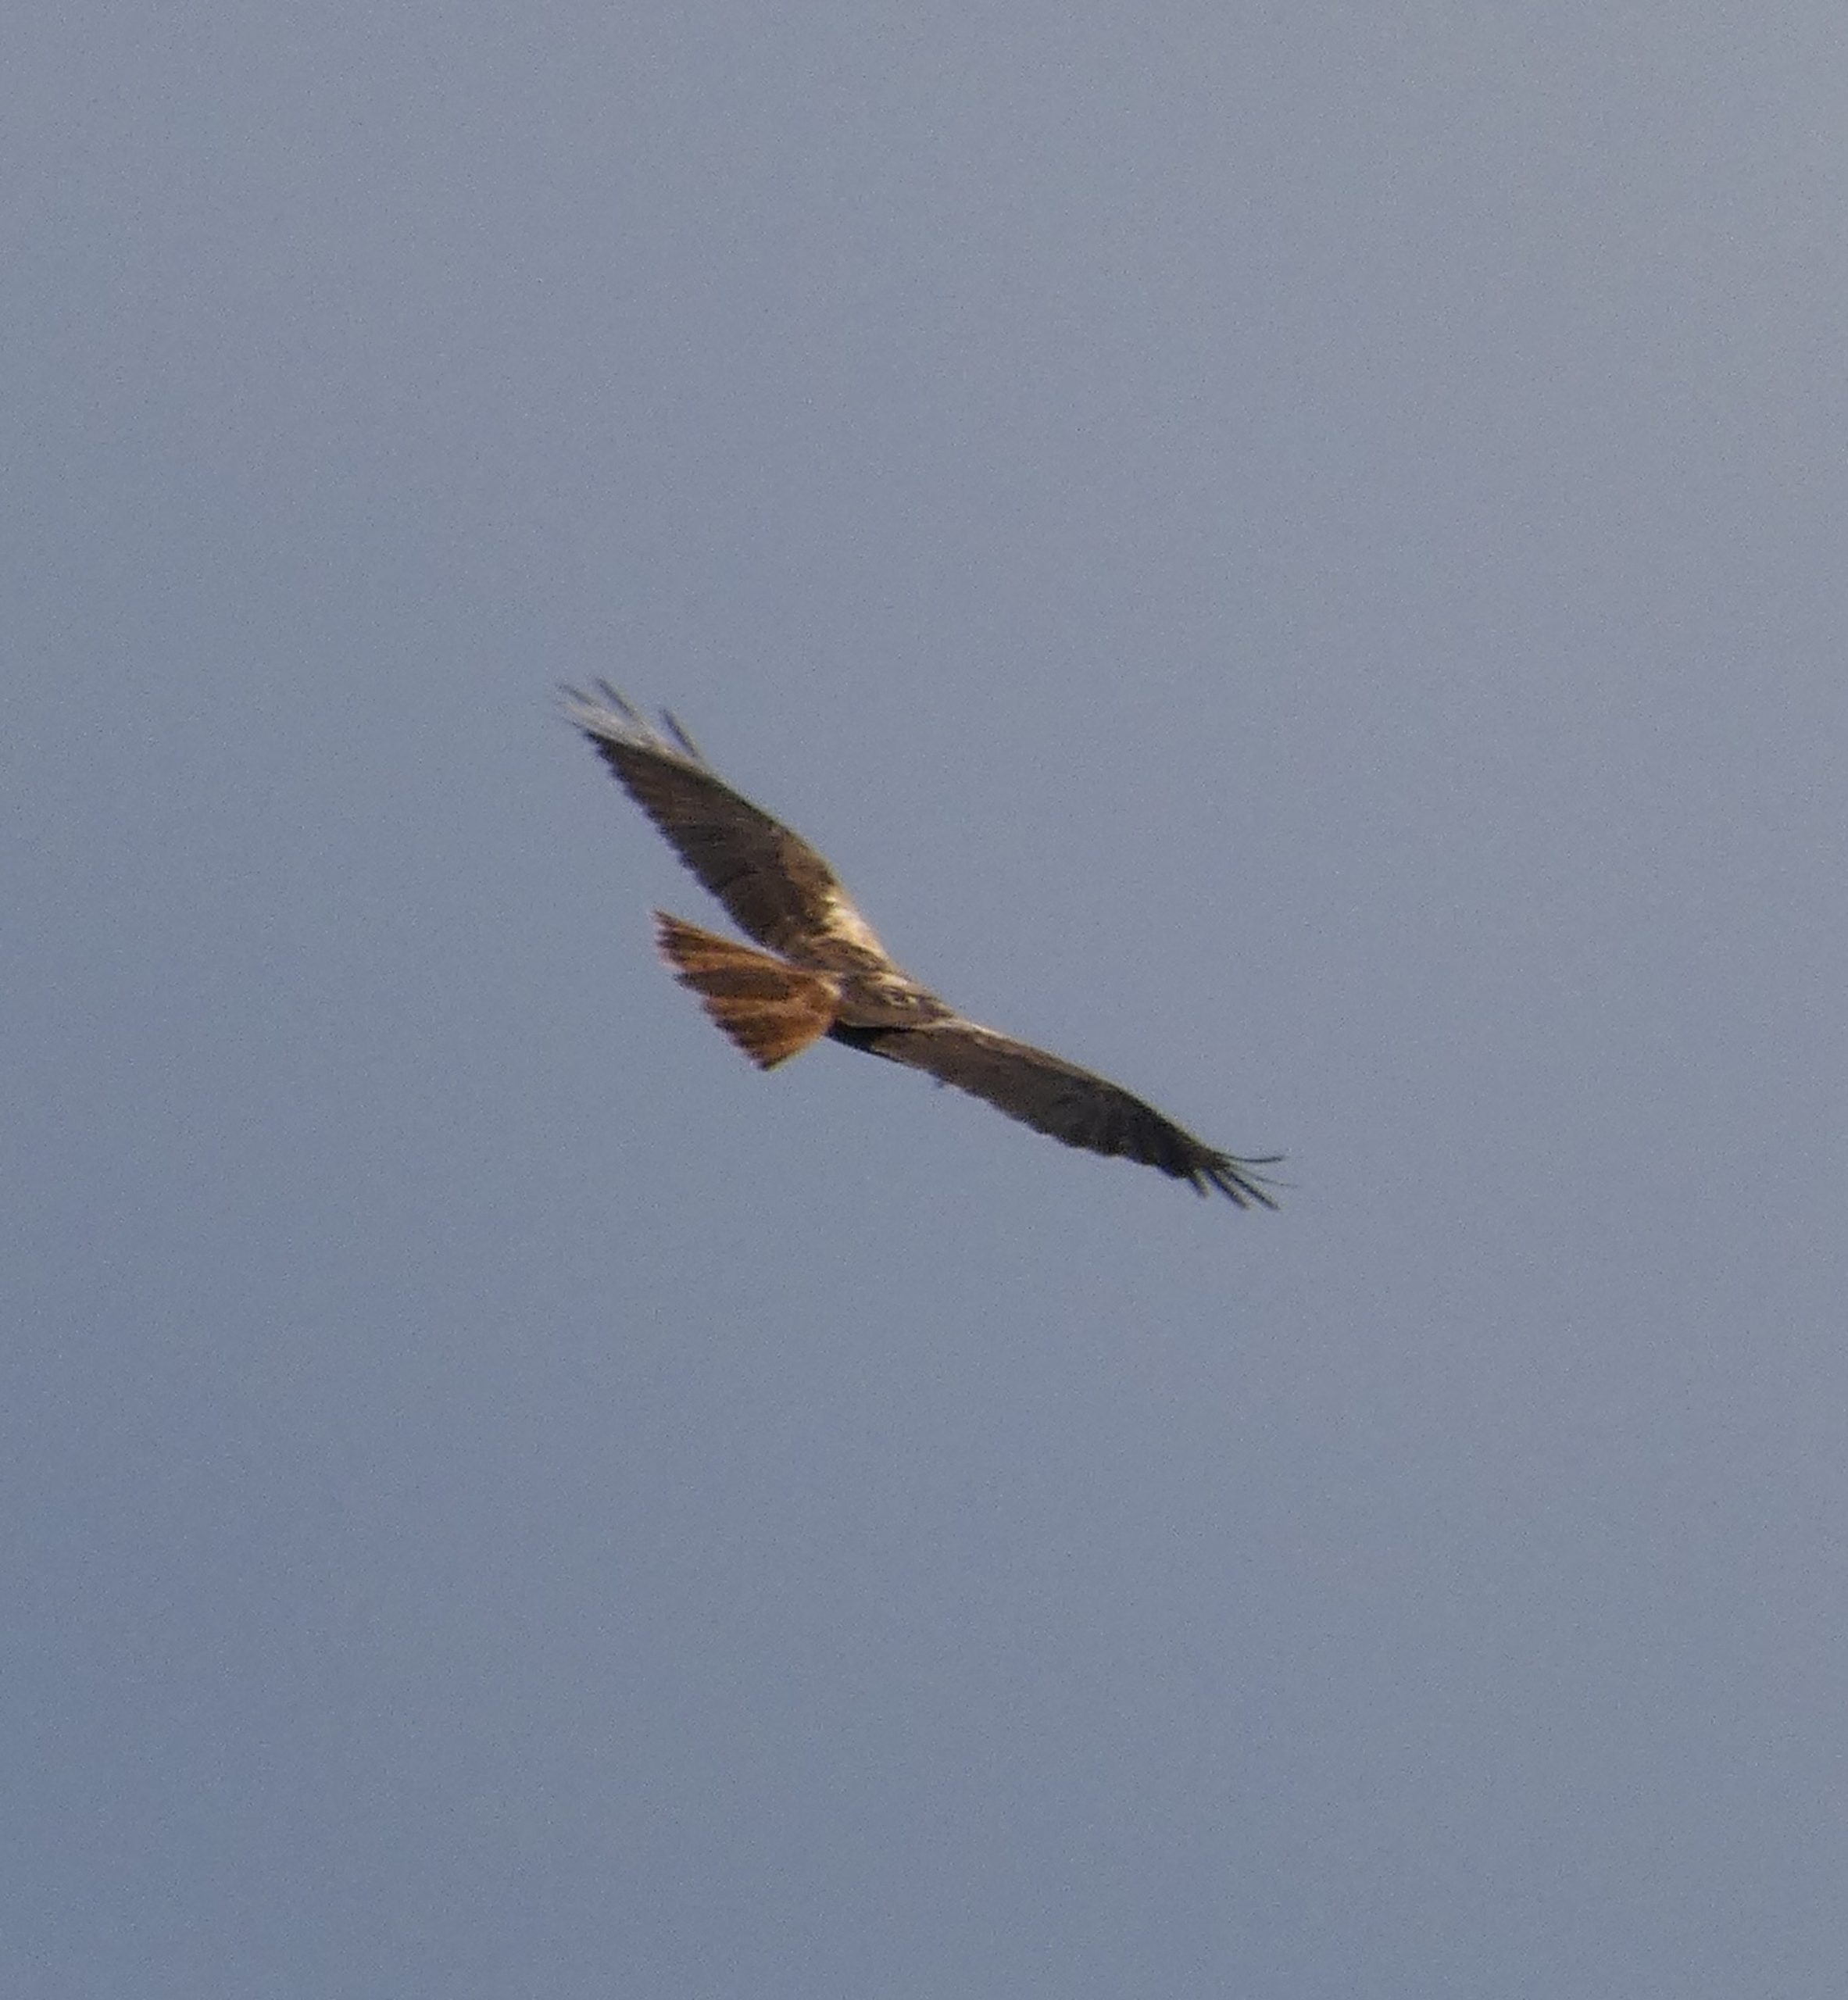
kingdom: Animalia
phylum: Chordata
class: Aves
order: Accipitriformes
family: Accipitridae
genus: Circus
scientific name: Circus aeruginosus
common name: Rørhøg
